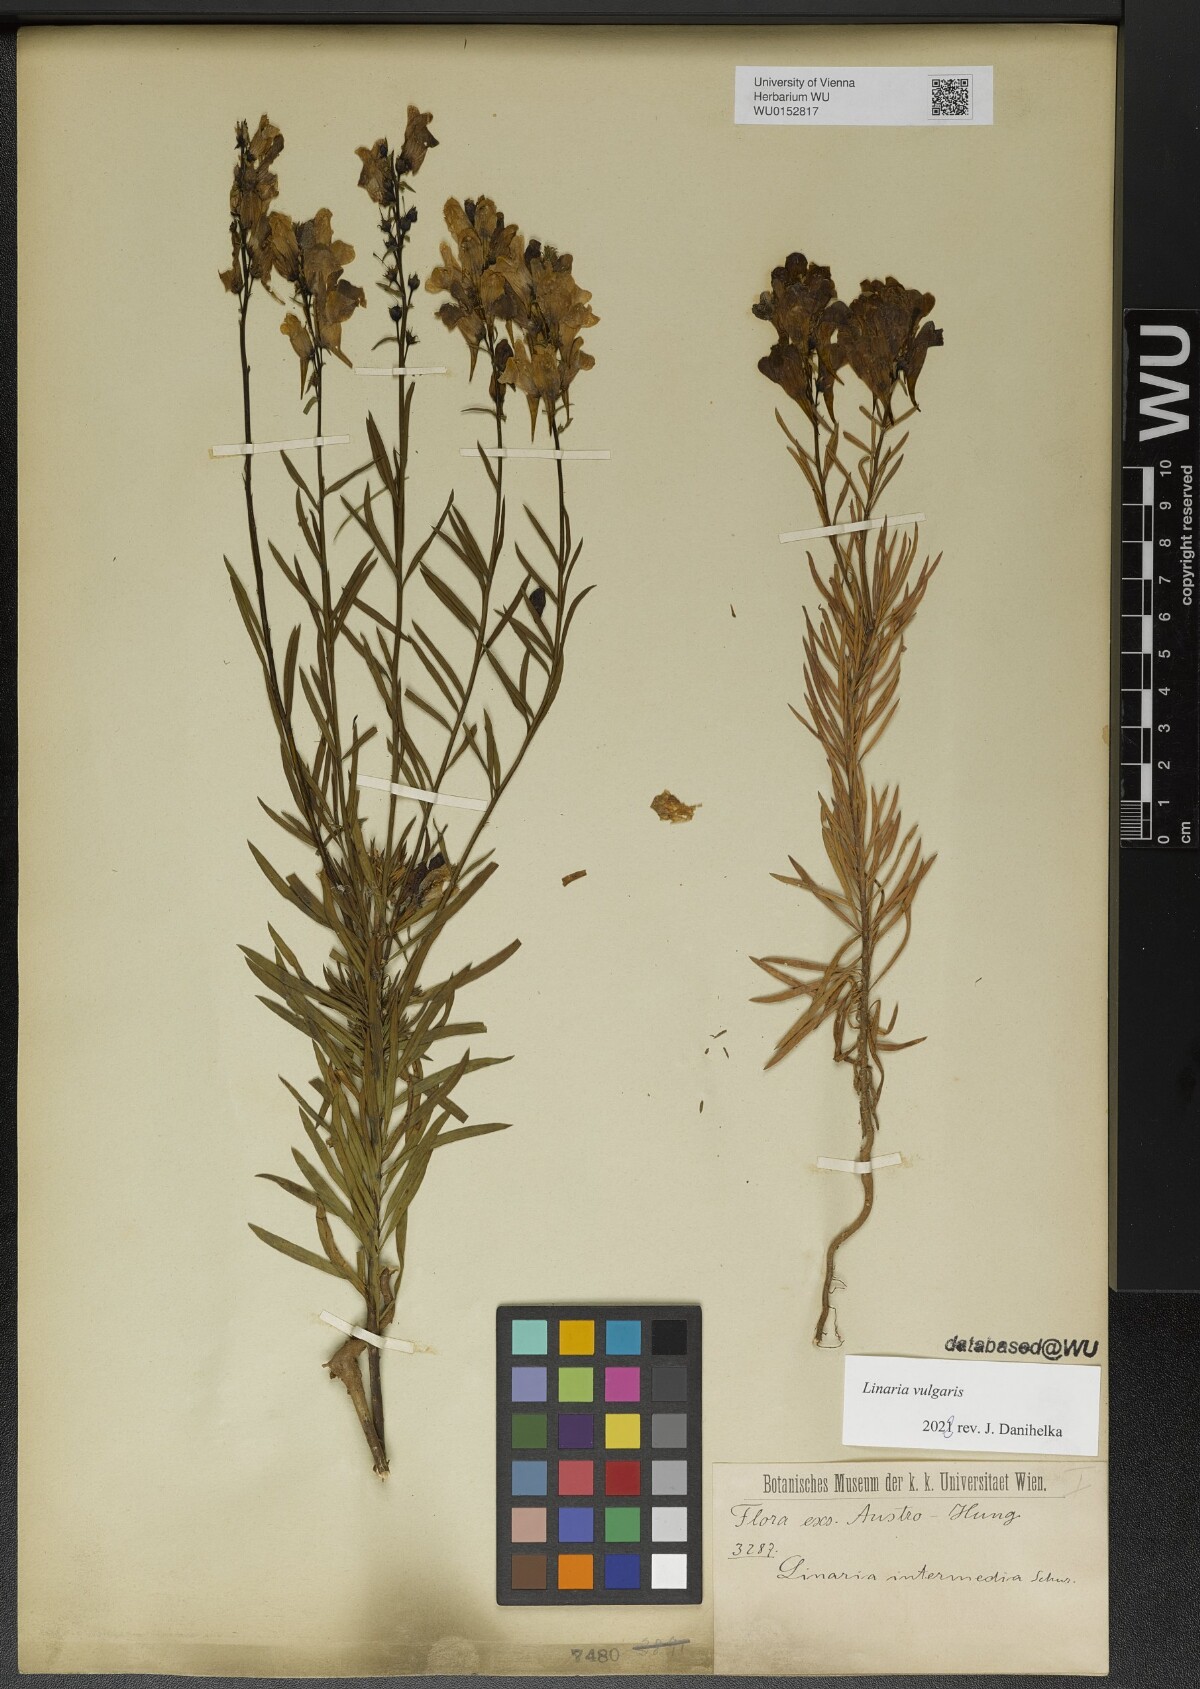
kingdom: Plantae
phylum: Tracheophyta
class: Magnoliopsida
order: Lamiales
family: Plantaginaceae
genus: Linaria
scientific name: Linaria vulgaris
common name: Butter and eggs
